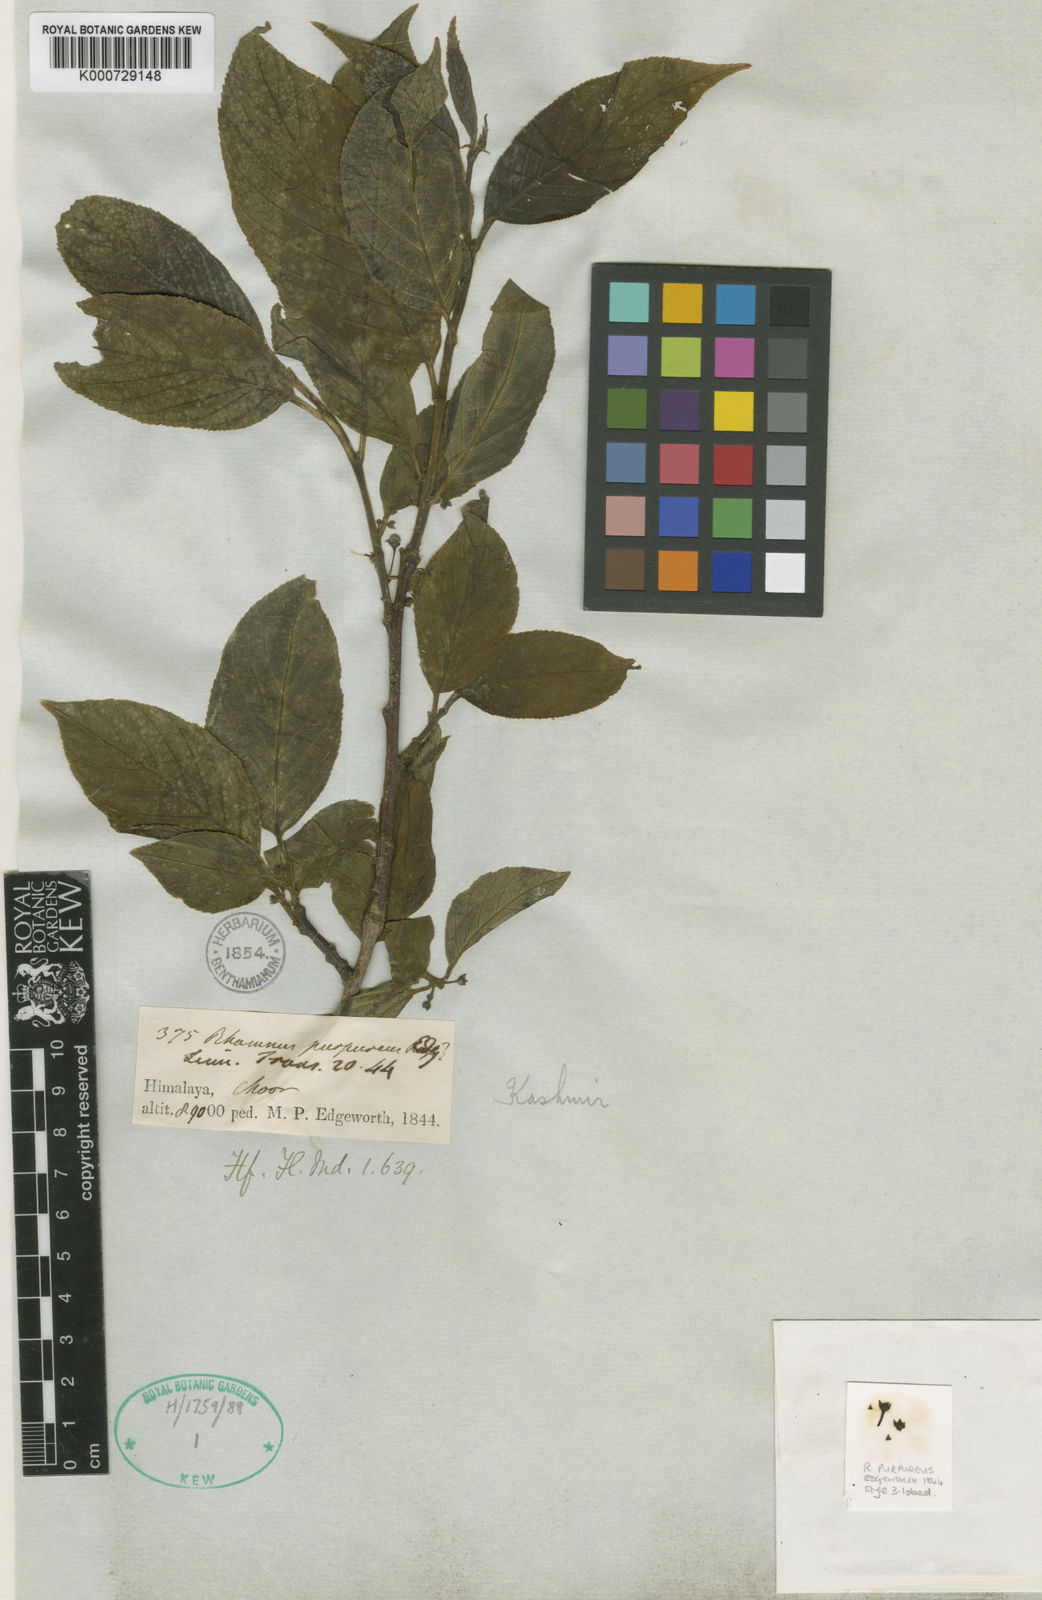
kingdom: Plantae
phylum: Tracheophyta
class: Magnoliopsida
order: Rosales
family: Rhamnaceae
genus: Rhamnus
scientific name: Rhamnus purpurea
